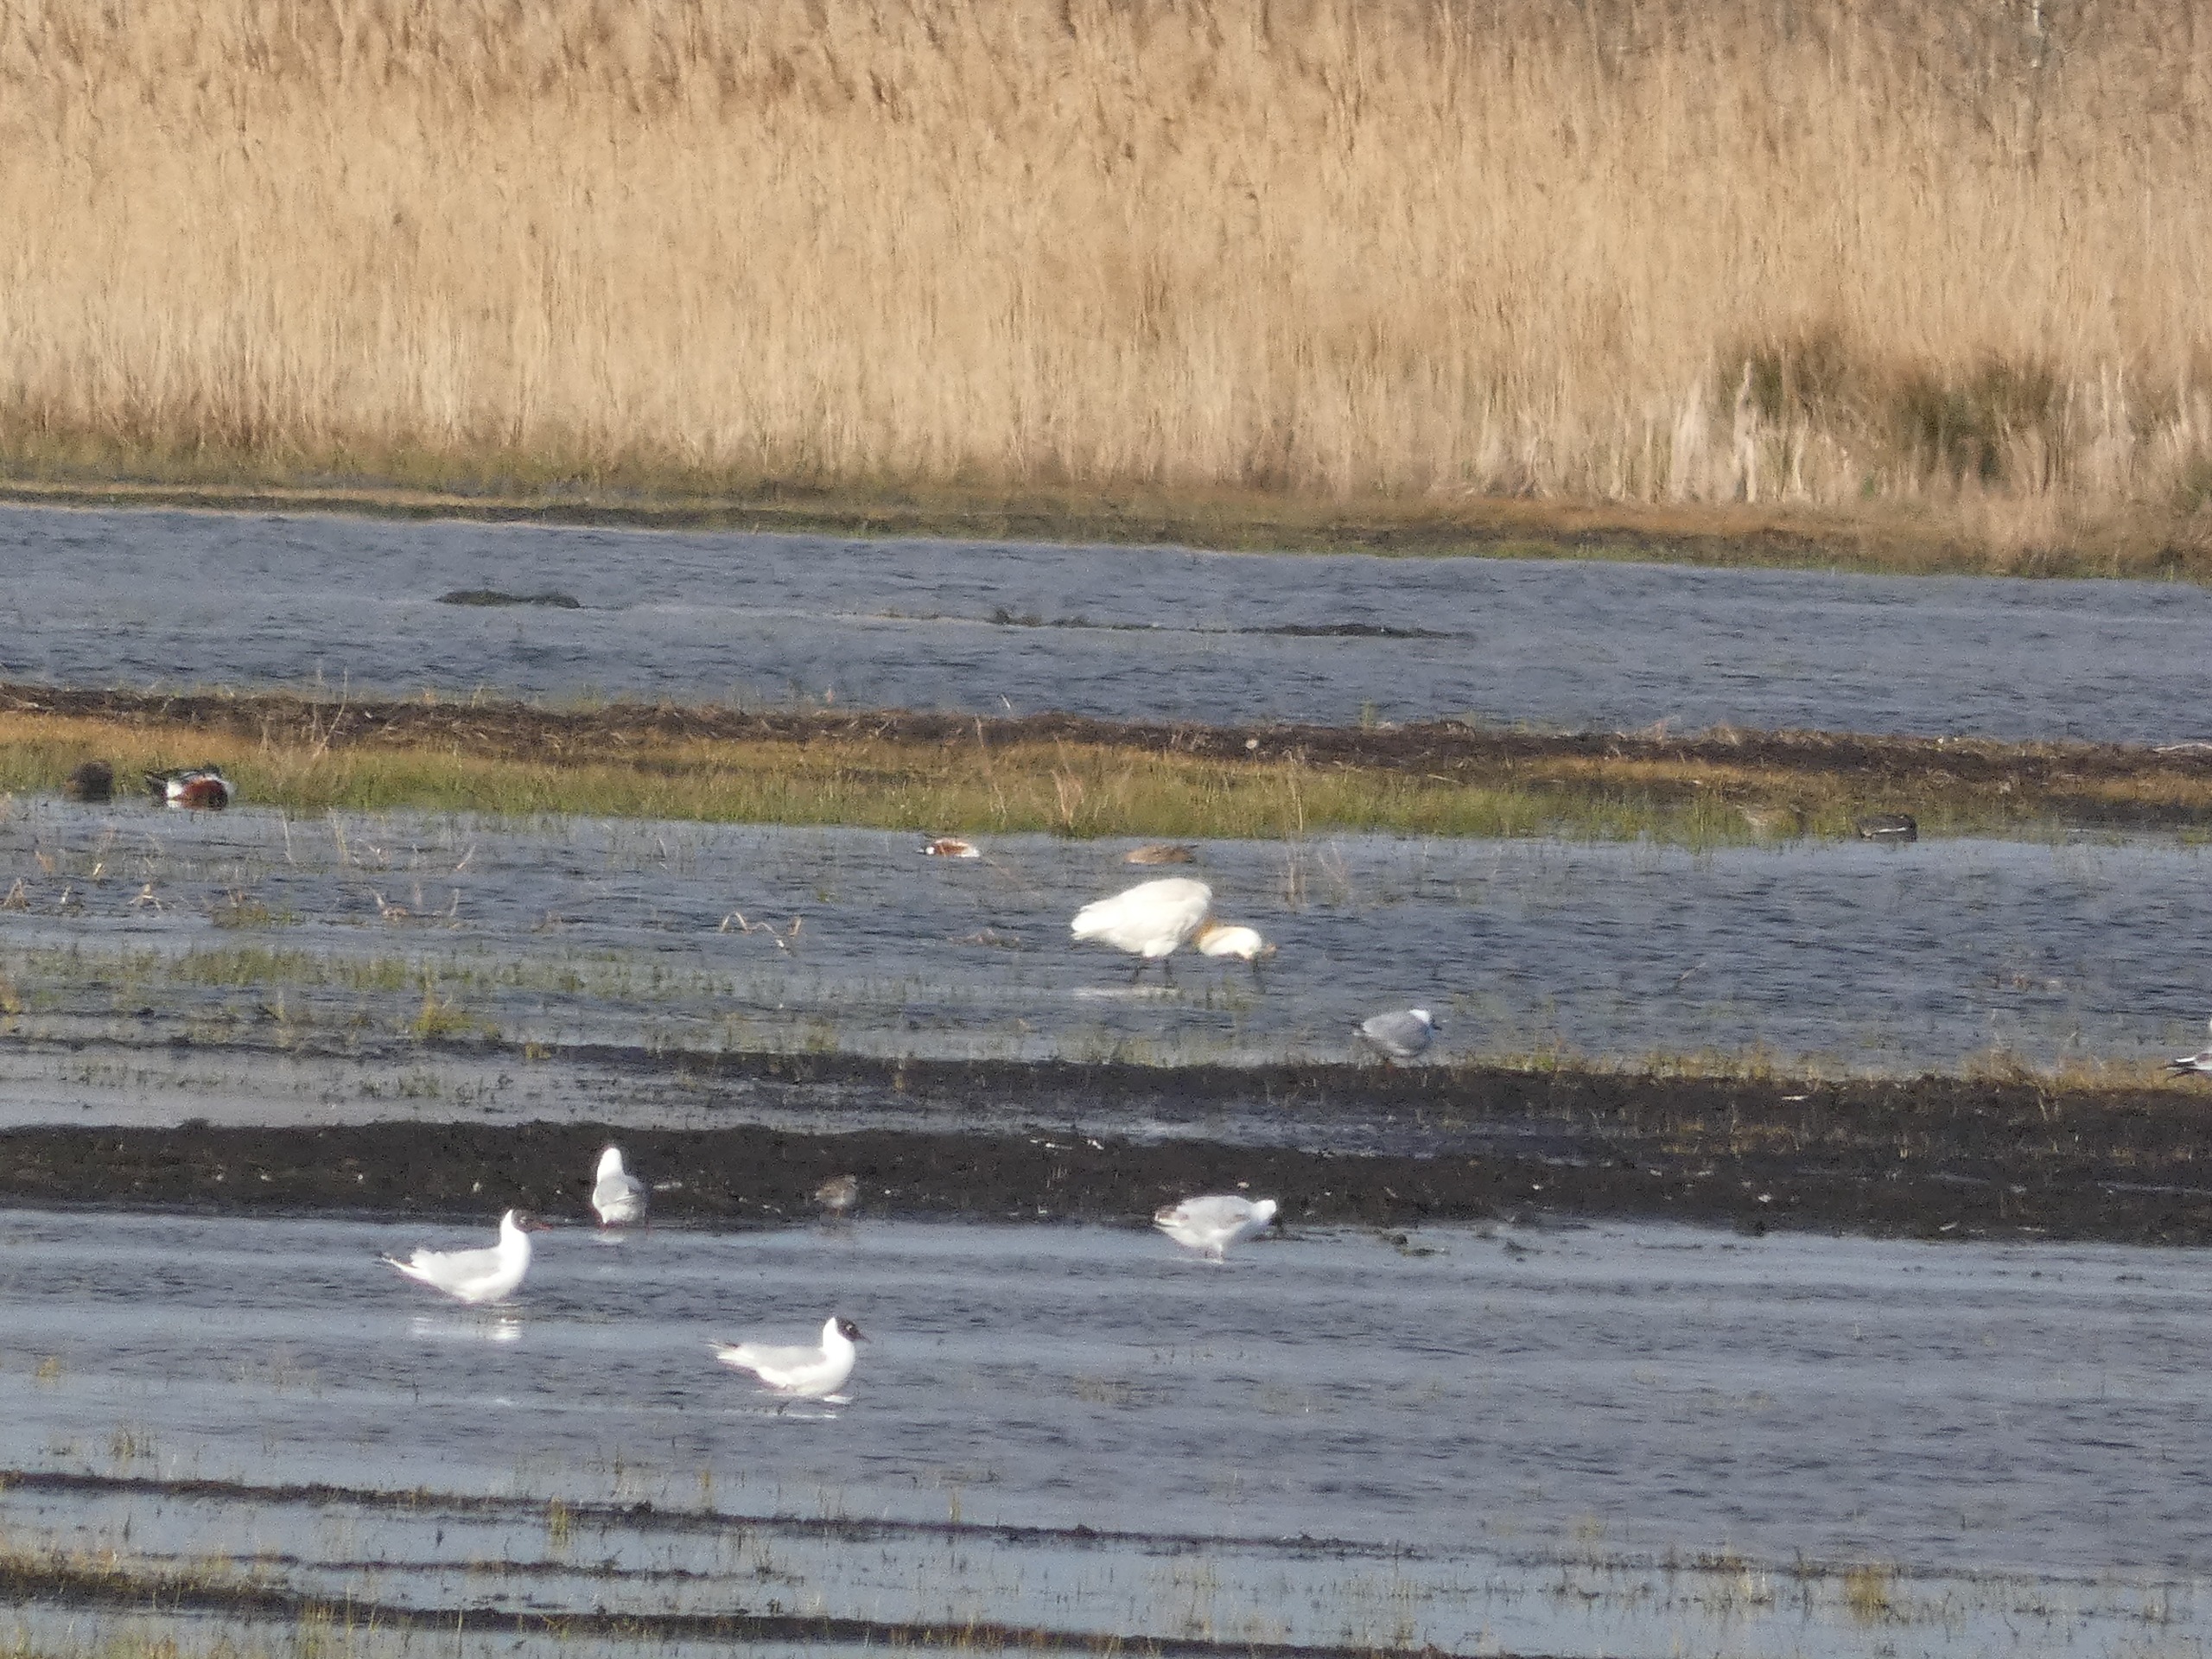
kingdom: Animalia
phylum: Chordata
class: Aves
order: Charadriiformes
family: Laridae
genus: Chroicocephalus
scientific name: Chroicocephalus ridibundus
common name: Hættemåge
